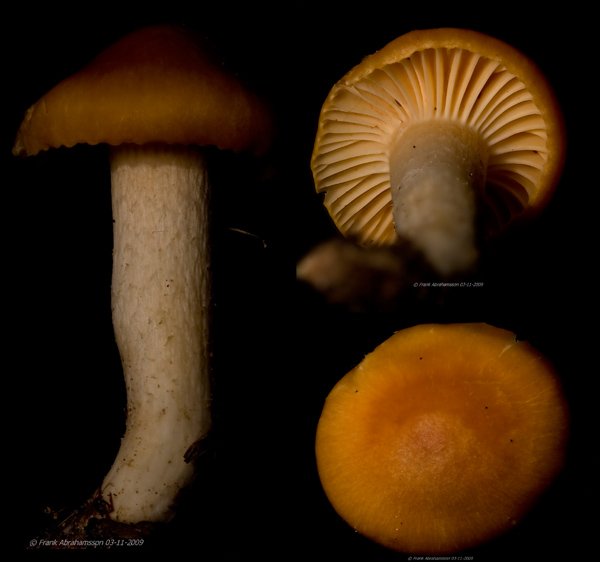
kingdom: Fungi
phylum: Basidiomycota
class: Agaricomycetes
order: Agaricales
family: Hygrophoraceae
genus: Cuphophyllus
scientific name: Cuphophyllus pratensis
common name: eng-vokshat
